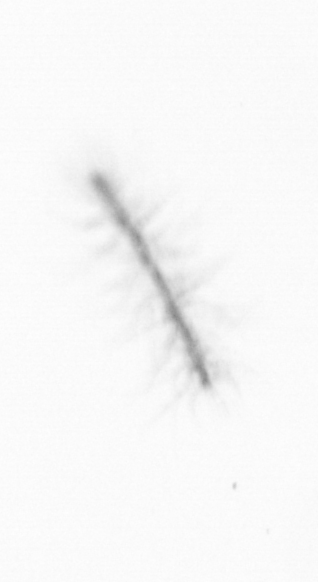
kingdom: Chromista
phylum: Ochrophyta
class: Bacillariophyceae
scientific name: Bacillariophyceae
